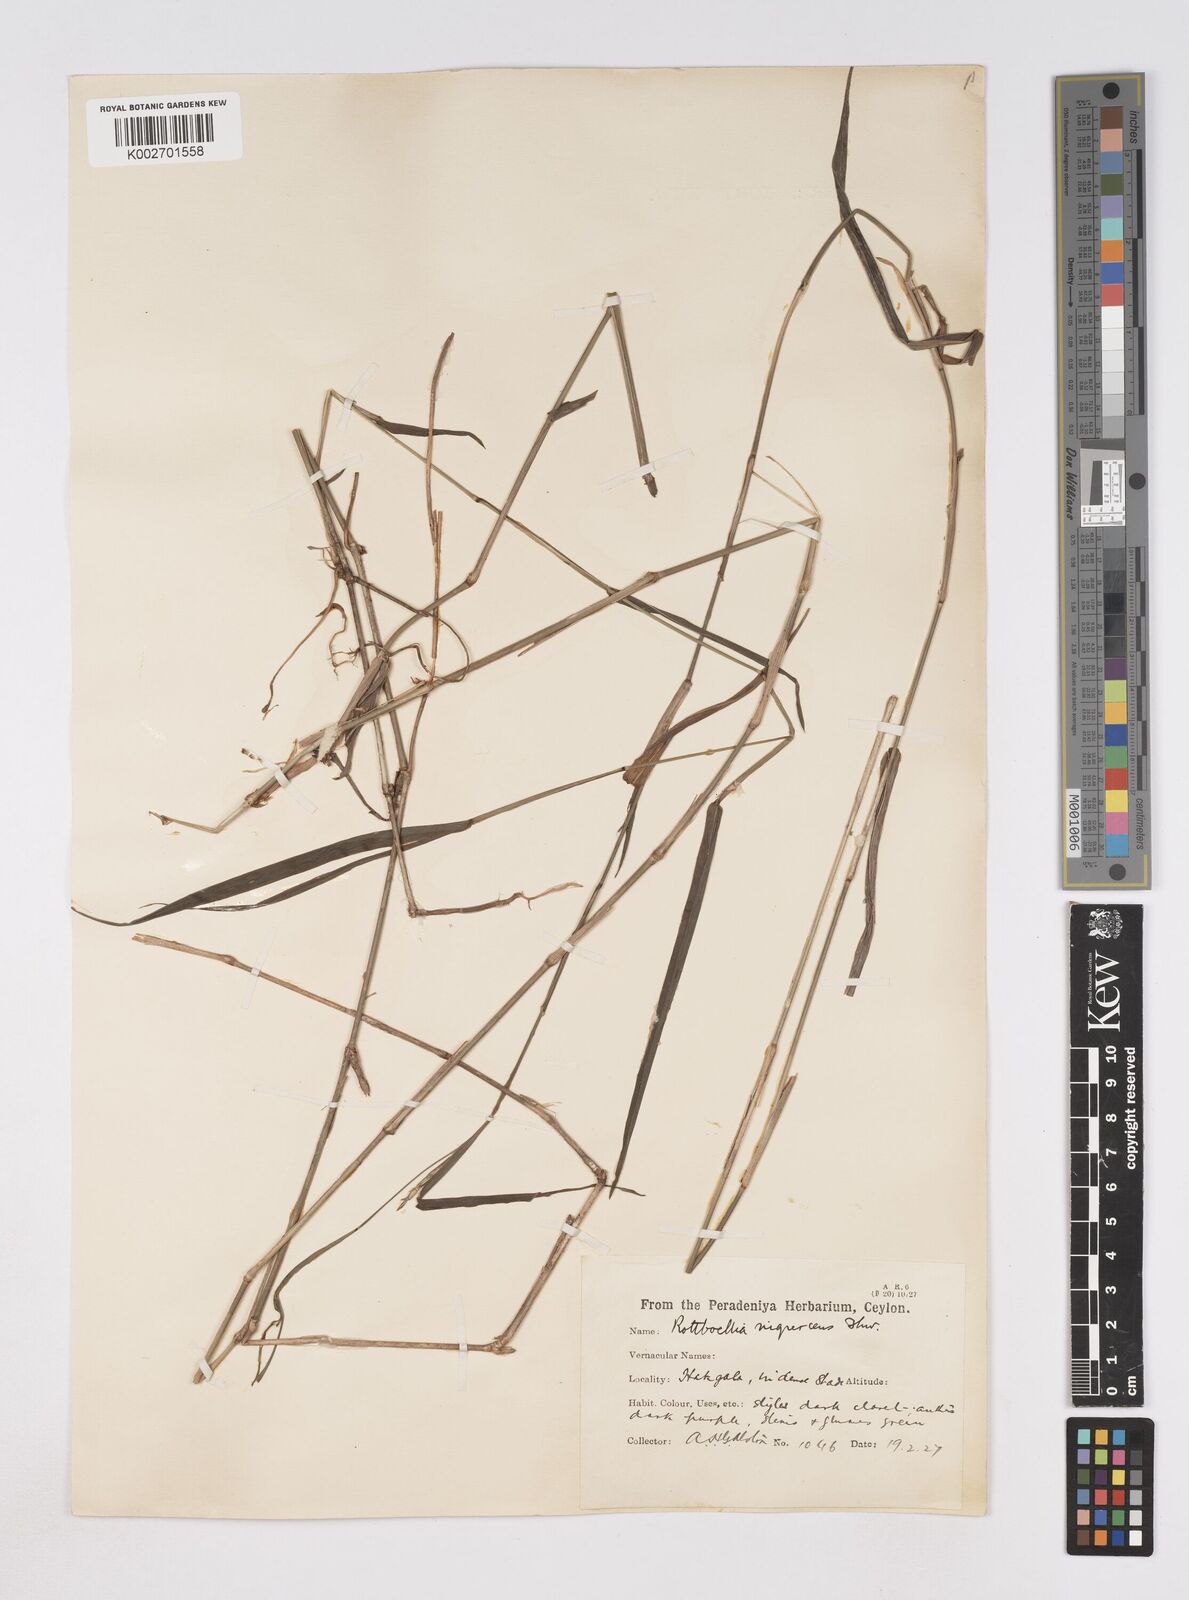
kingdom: Plantae
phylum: Tracheophyta
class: Liliopsida
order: Poales
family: Poaceae
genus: Heteropholis
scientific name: Heteropholis nigrescens
